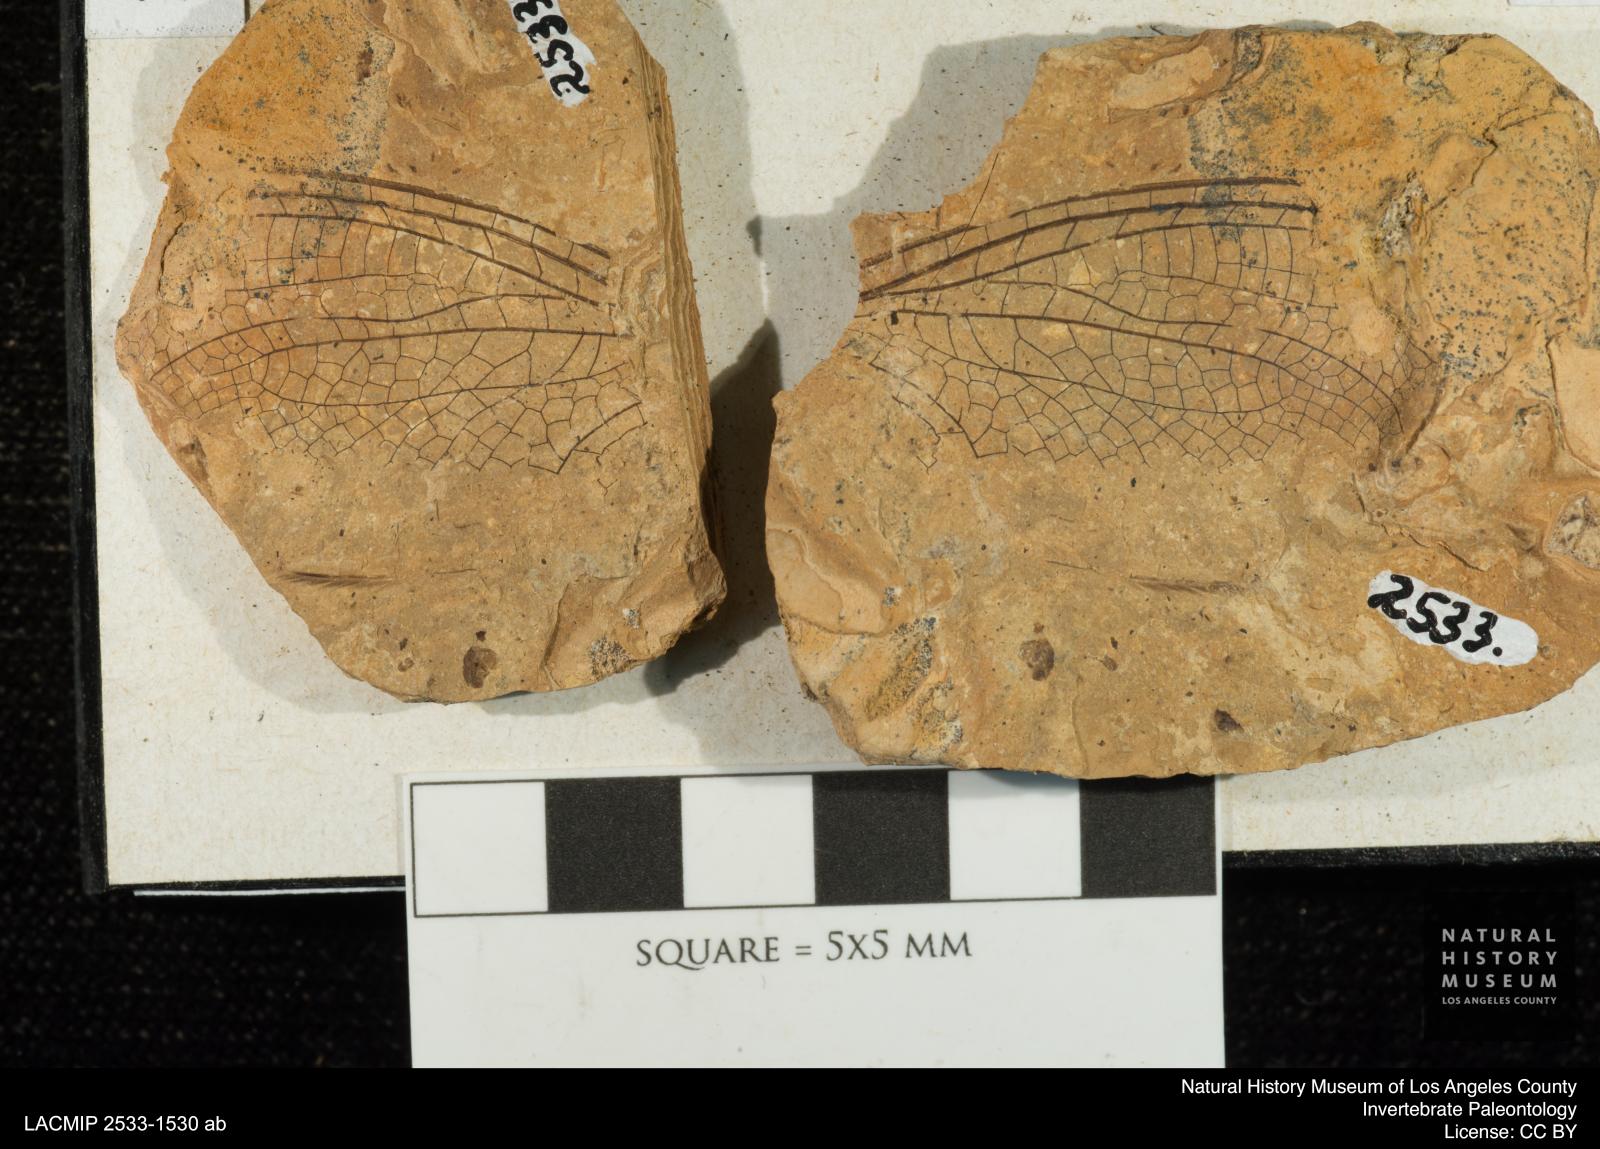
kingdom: Animalia
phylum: Arthropoda
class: Insecta
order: Odonata
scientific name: Odonata
